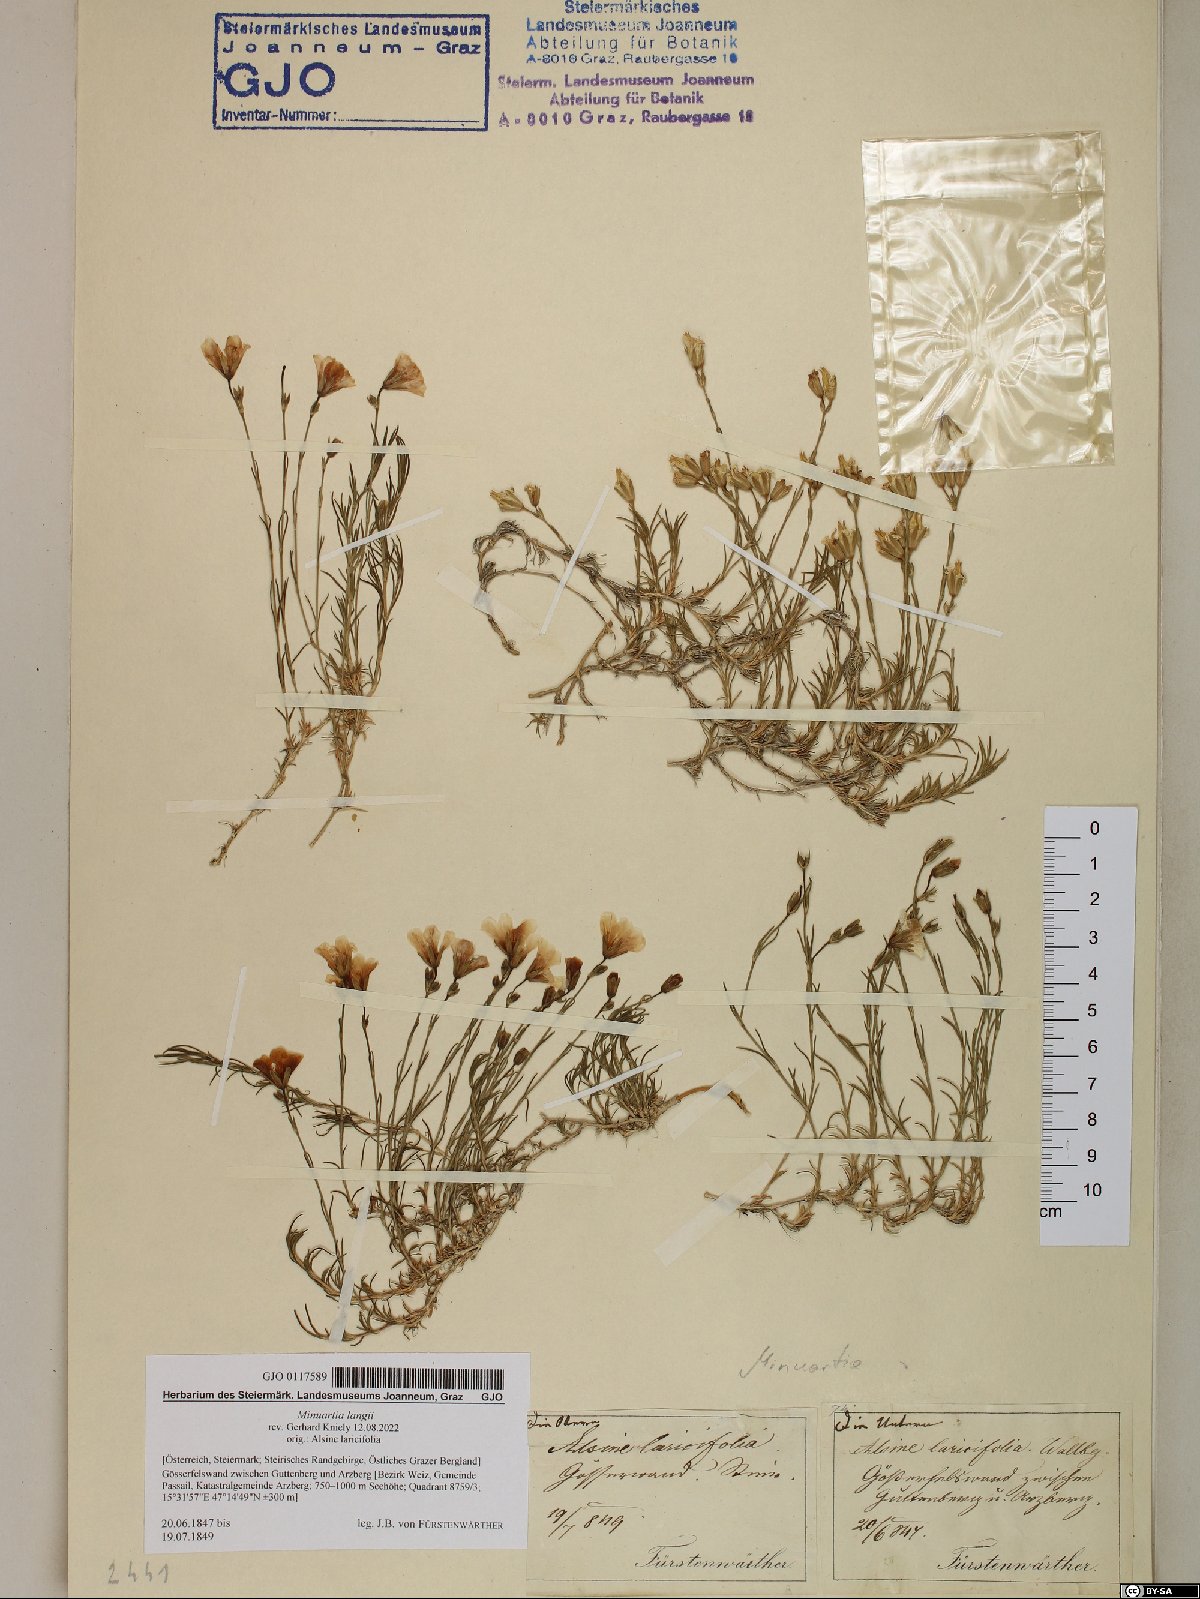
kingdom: Plantae
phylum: Tracheophyta
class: Magnoliopsida
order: Caryophyllales
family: Caryophyllaceae
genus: Cherleria
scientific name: Cherleria langii
